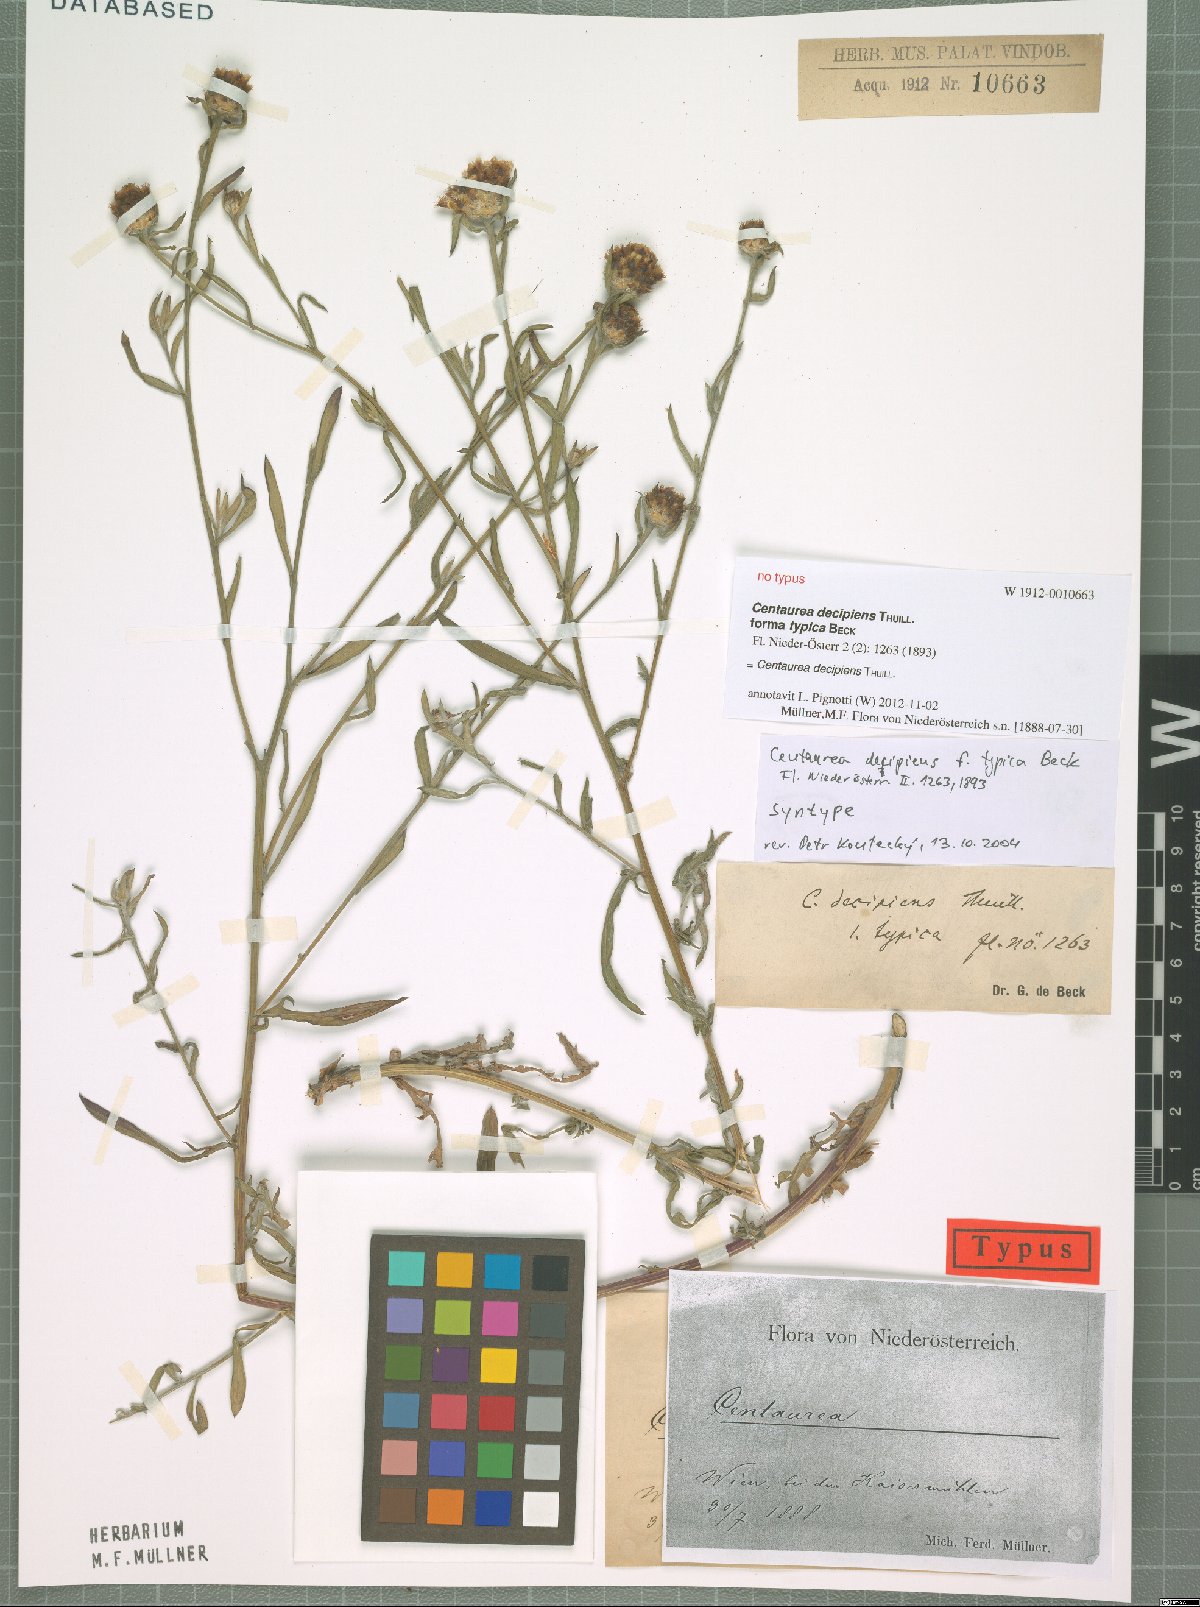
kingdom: Plantae
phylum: Tracheophyta
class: Magnoliopsida
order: Asterales
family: Asteraceae
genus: Centaurea
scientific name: Centaurea decipiens
